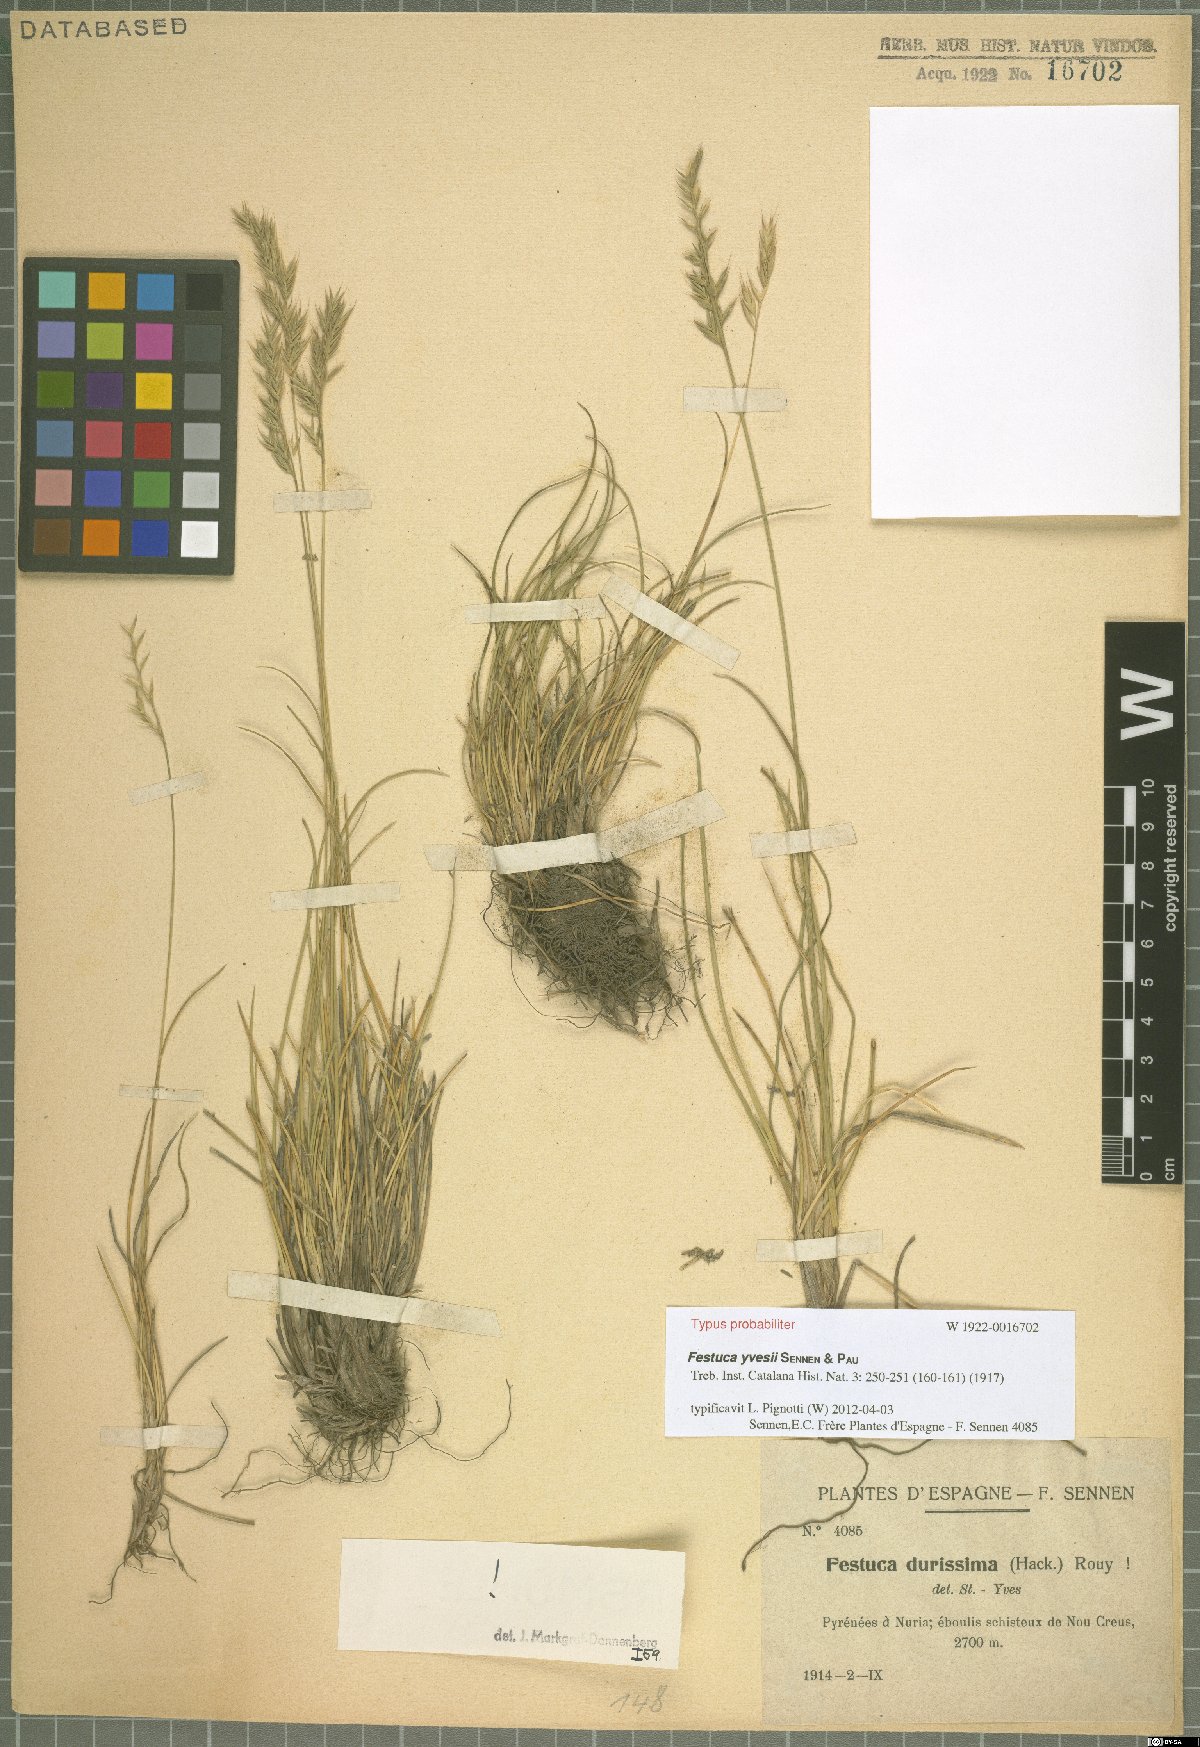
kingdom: Plantae
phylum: Tracheophyta
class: Liliopsida
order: Poales
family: Poaceae
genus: Festuca
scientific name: Festuca durissima
